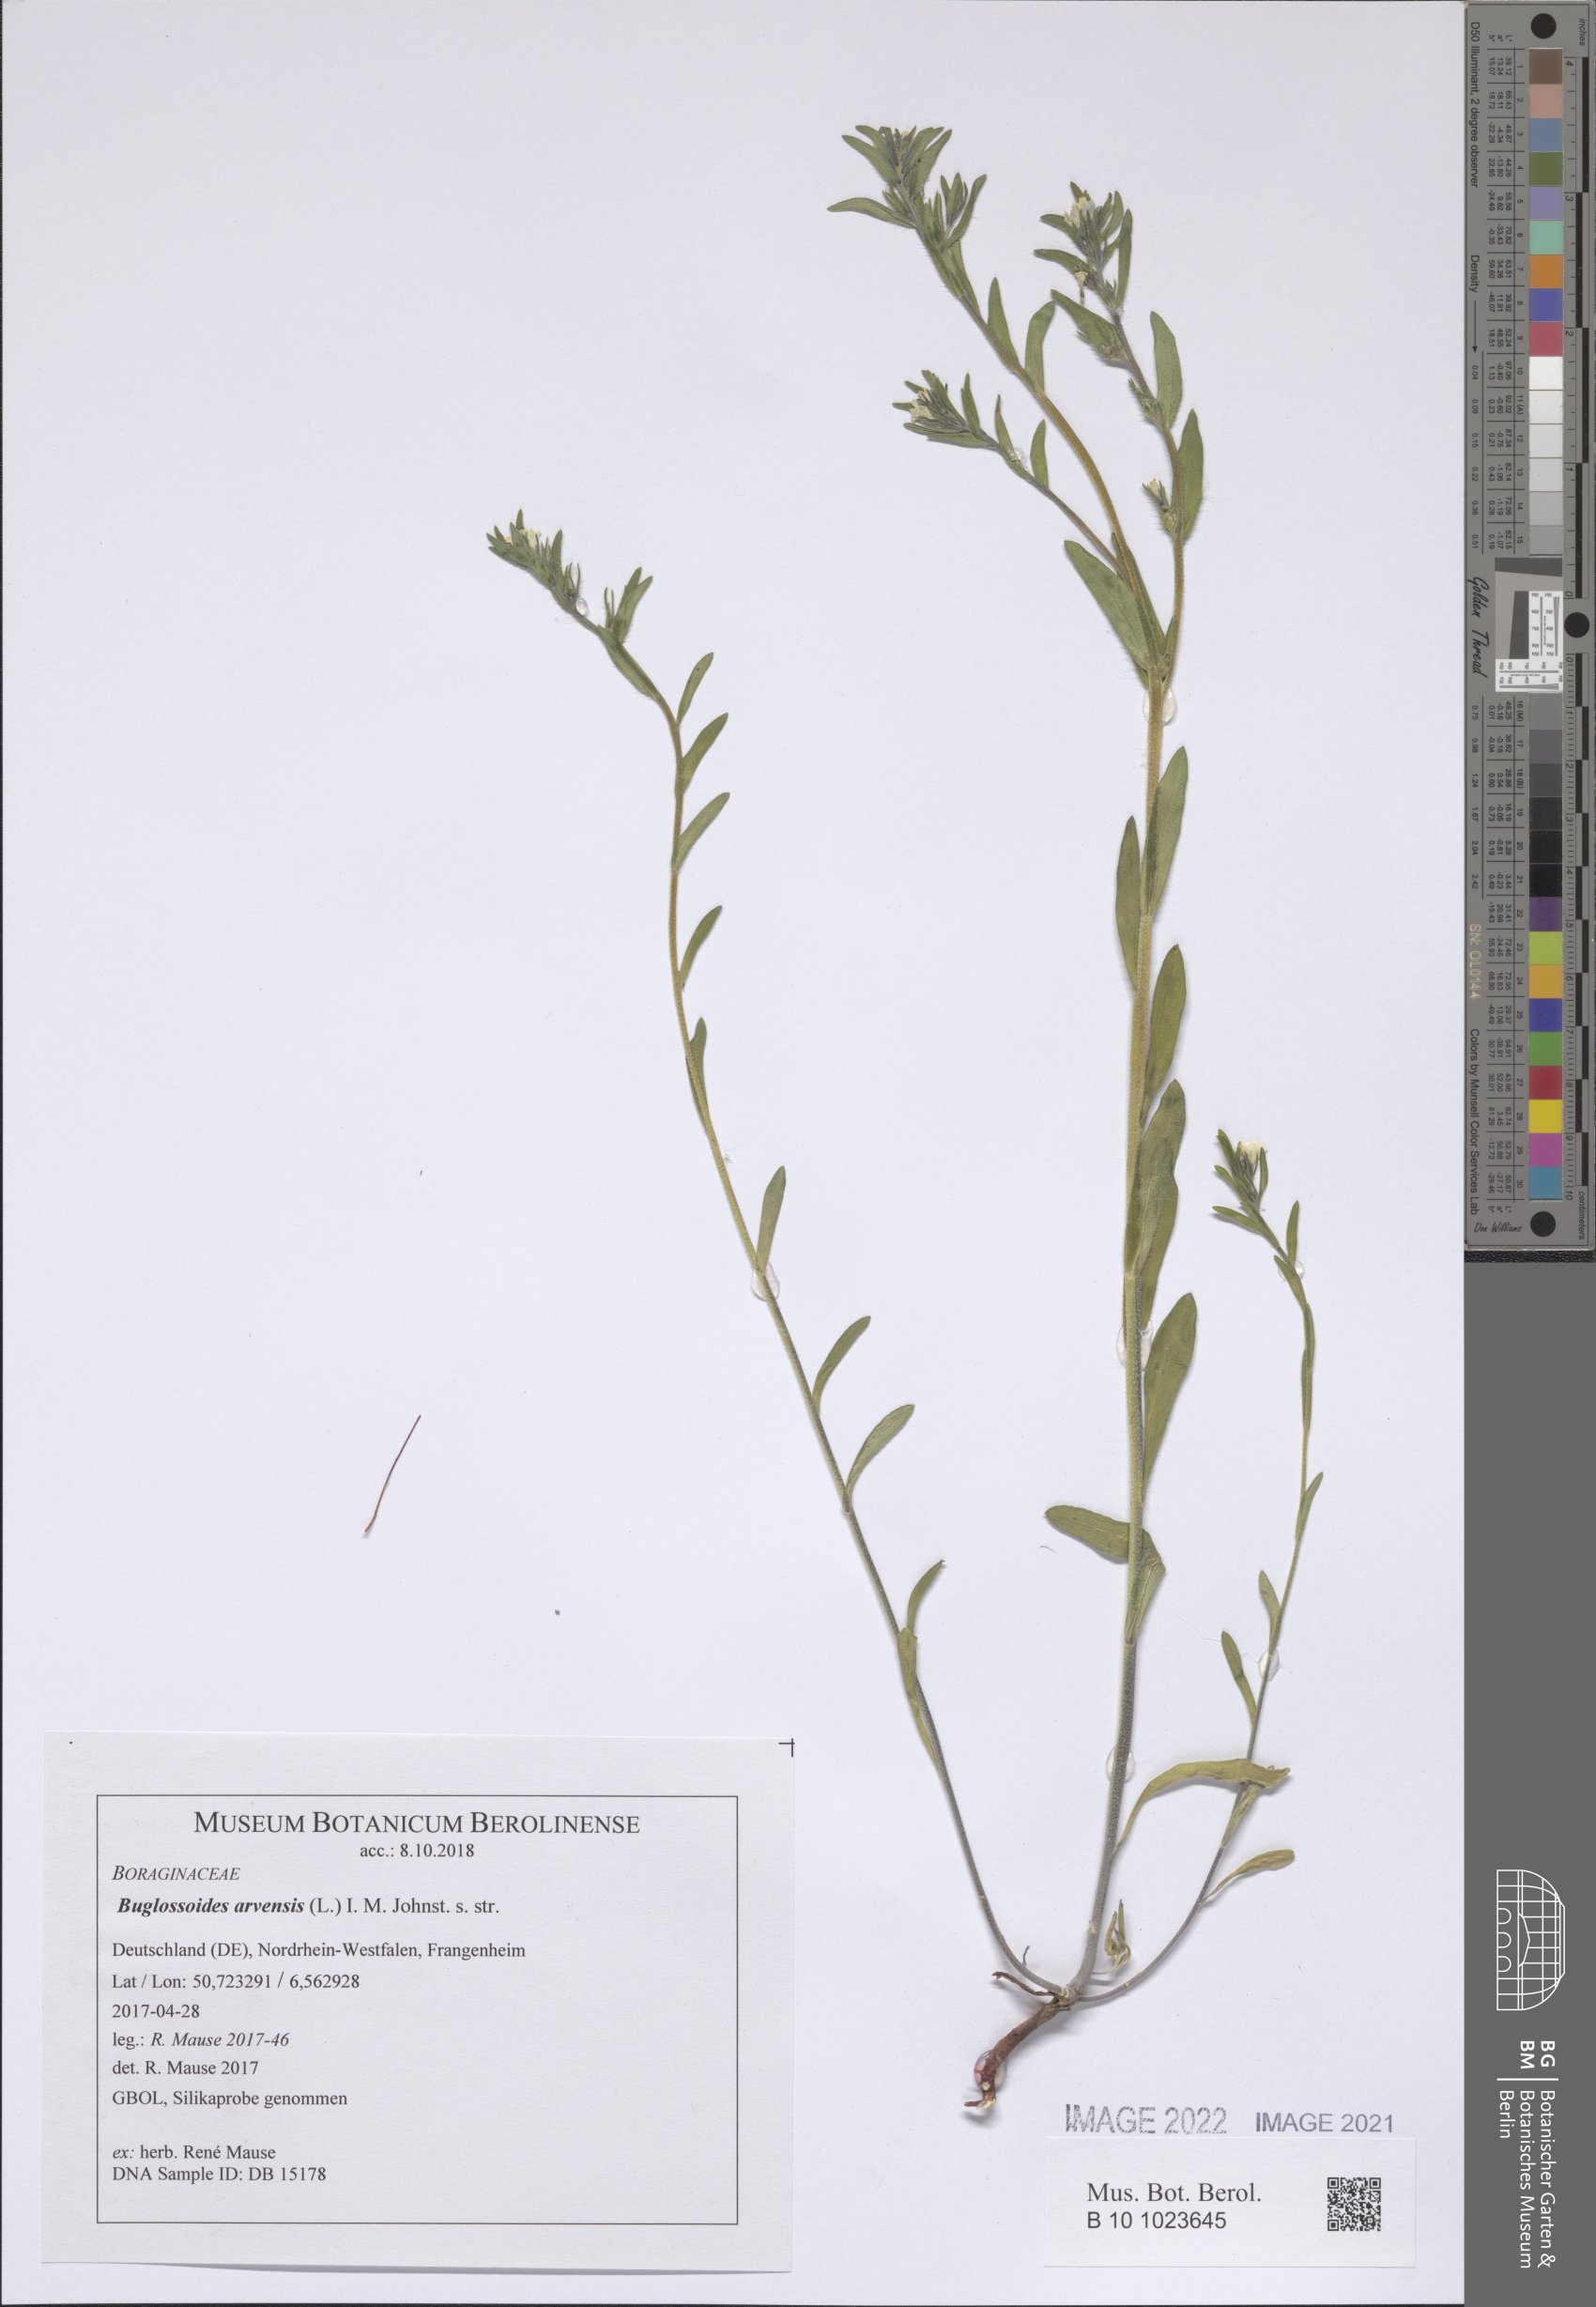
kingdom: Plantae
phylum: Tracheophyta
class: Magnoliopsida
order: Boraginales
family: Boraginaceae
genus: Buglossoides
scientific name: Buglossoides arvensis
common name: Corn gromwell
